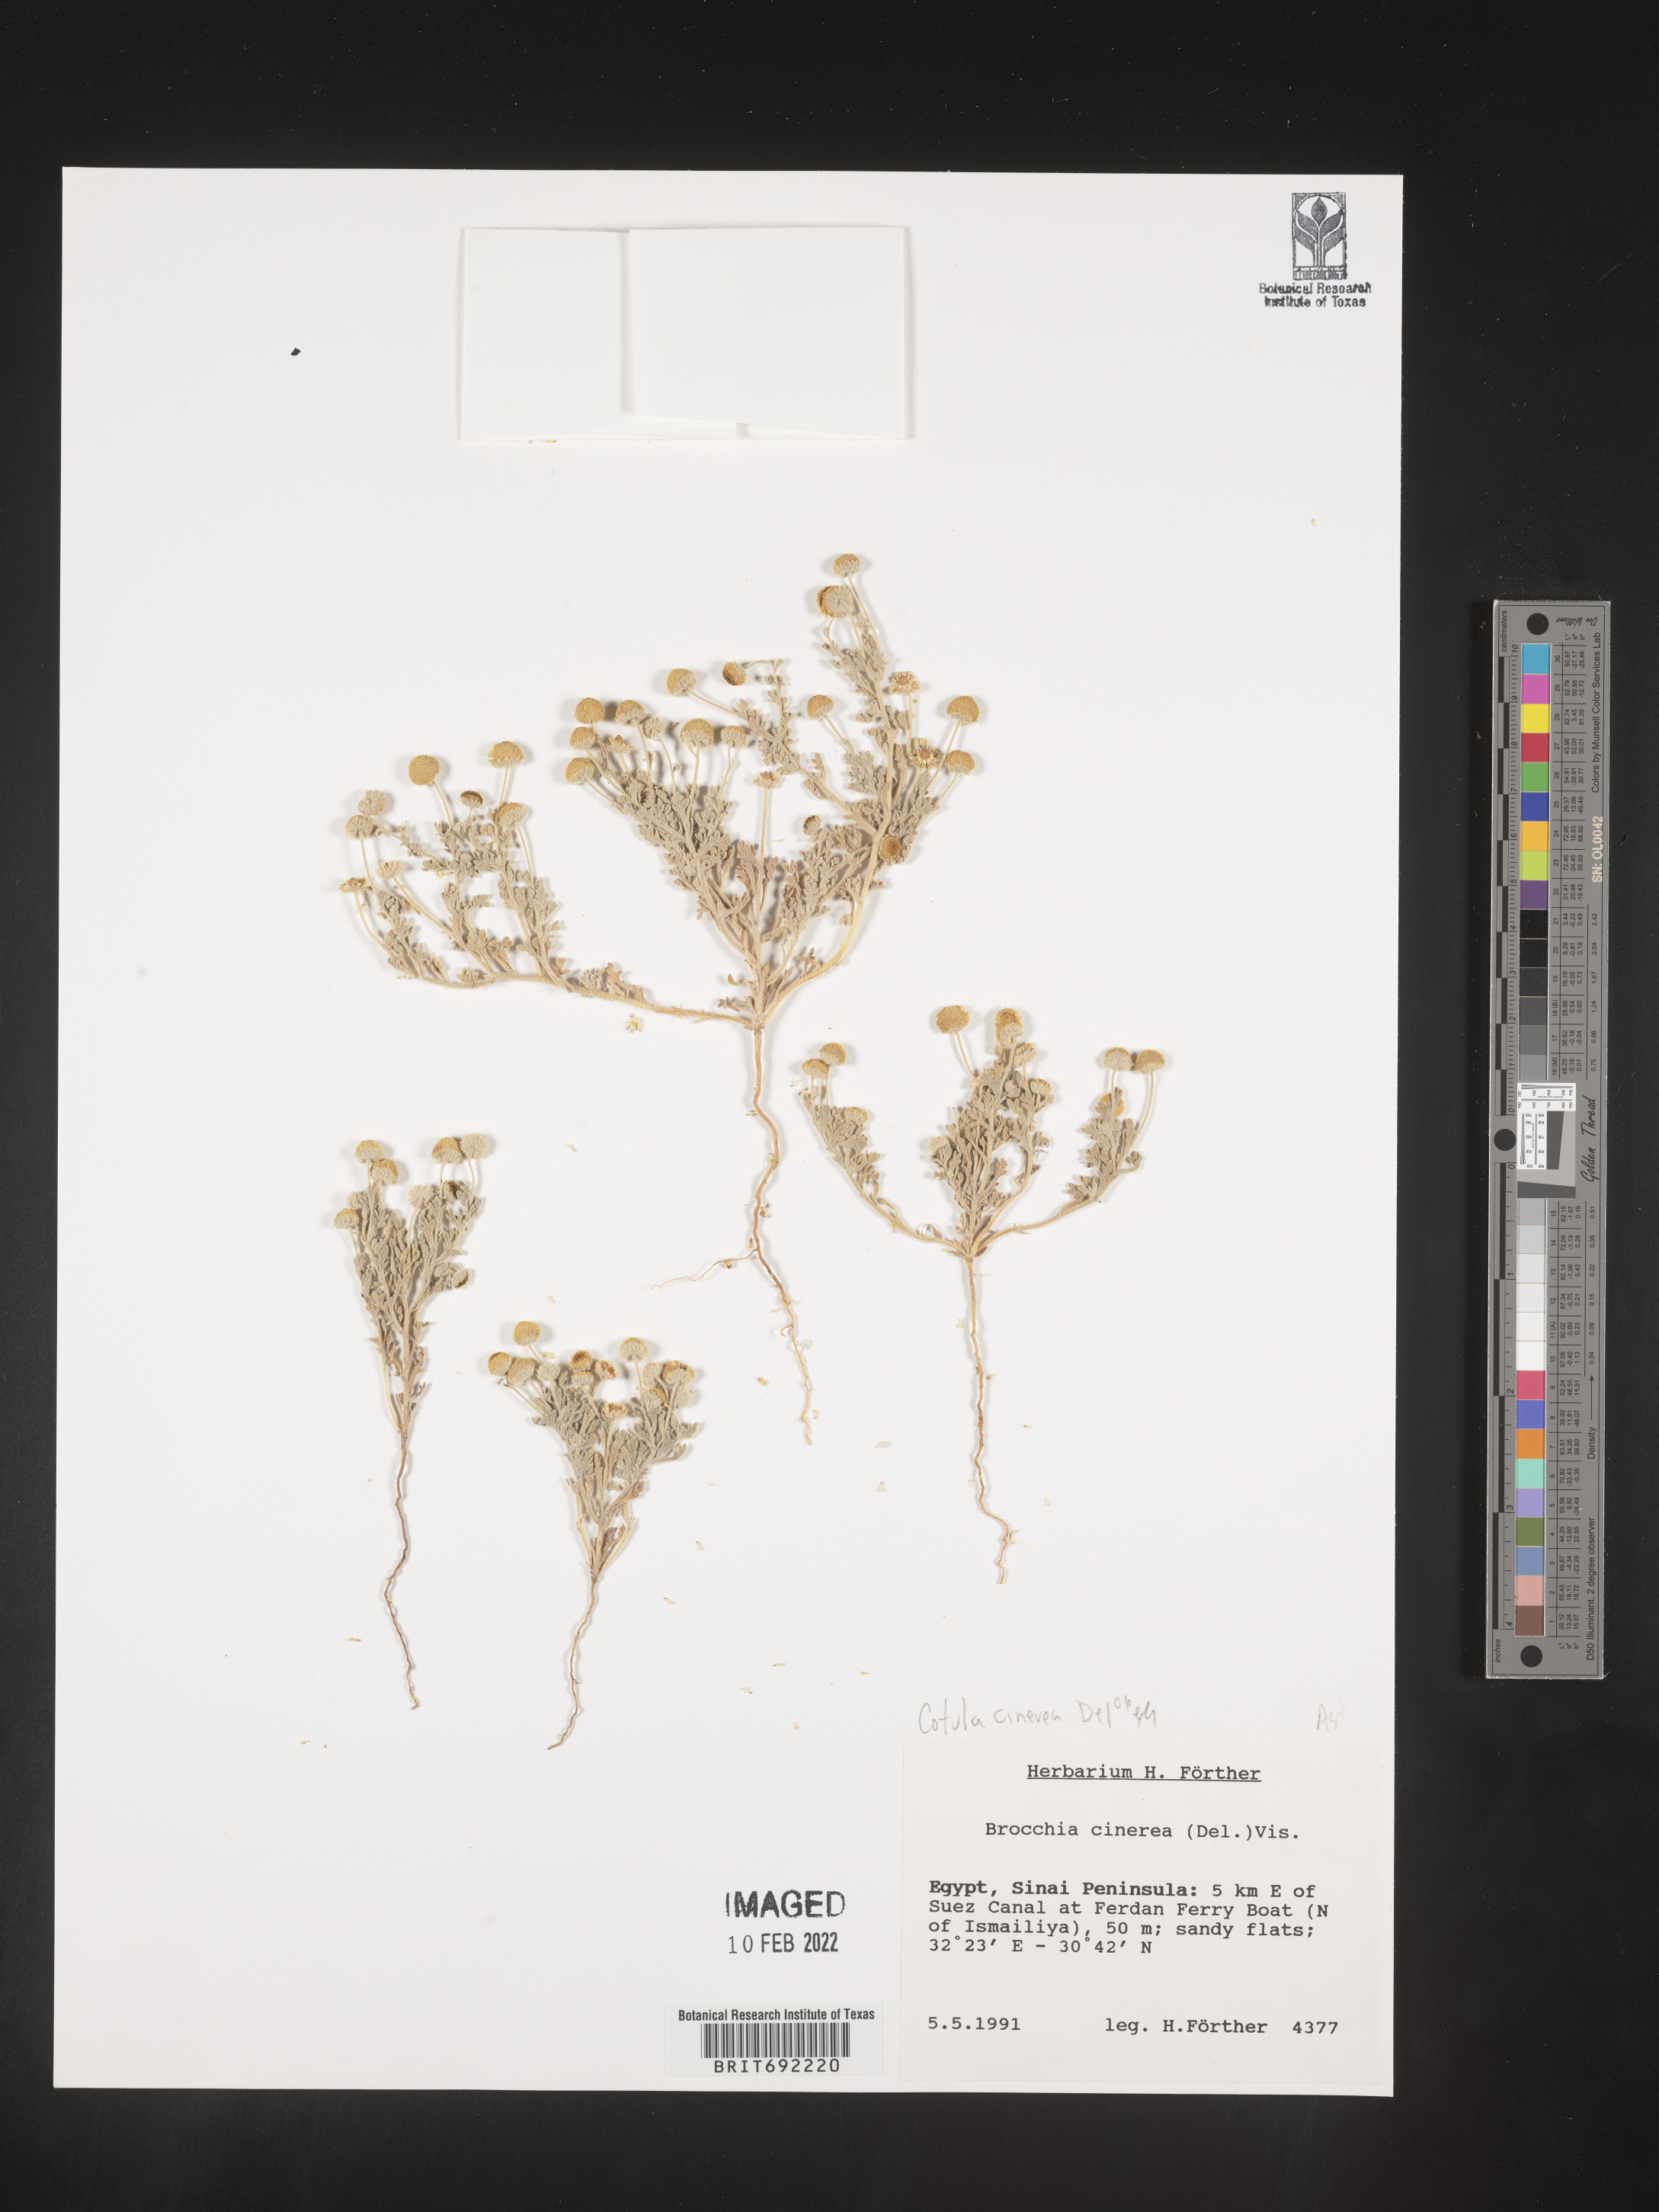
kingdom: Plantae
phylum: Tracheophyta
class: Magnoliopsida
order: Asterales
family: Asteraceae
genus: Cotula
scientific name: Cotula
